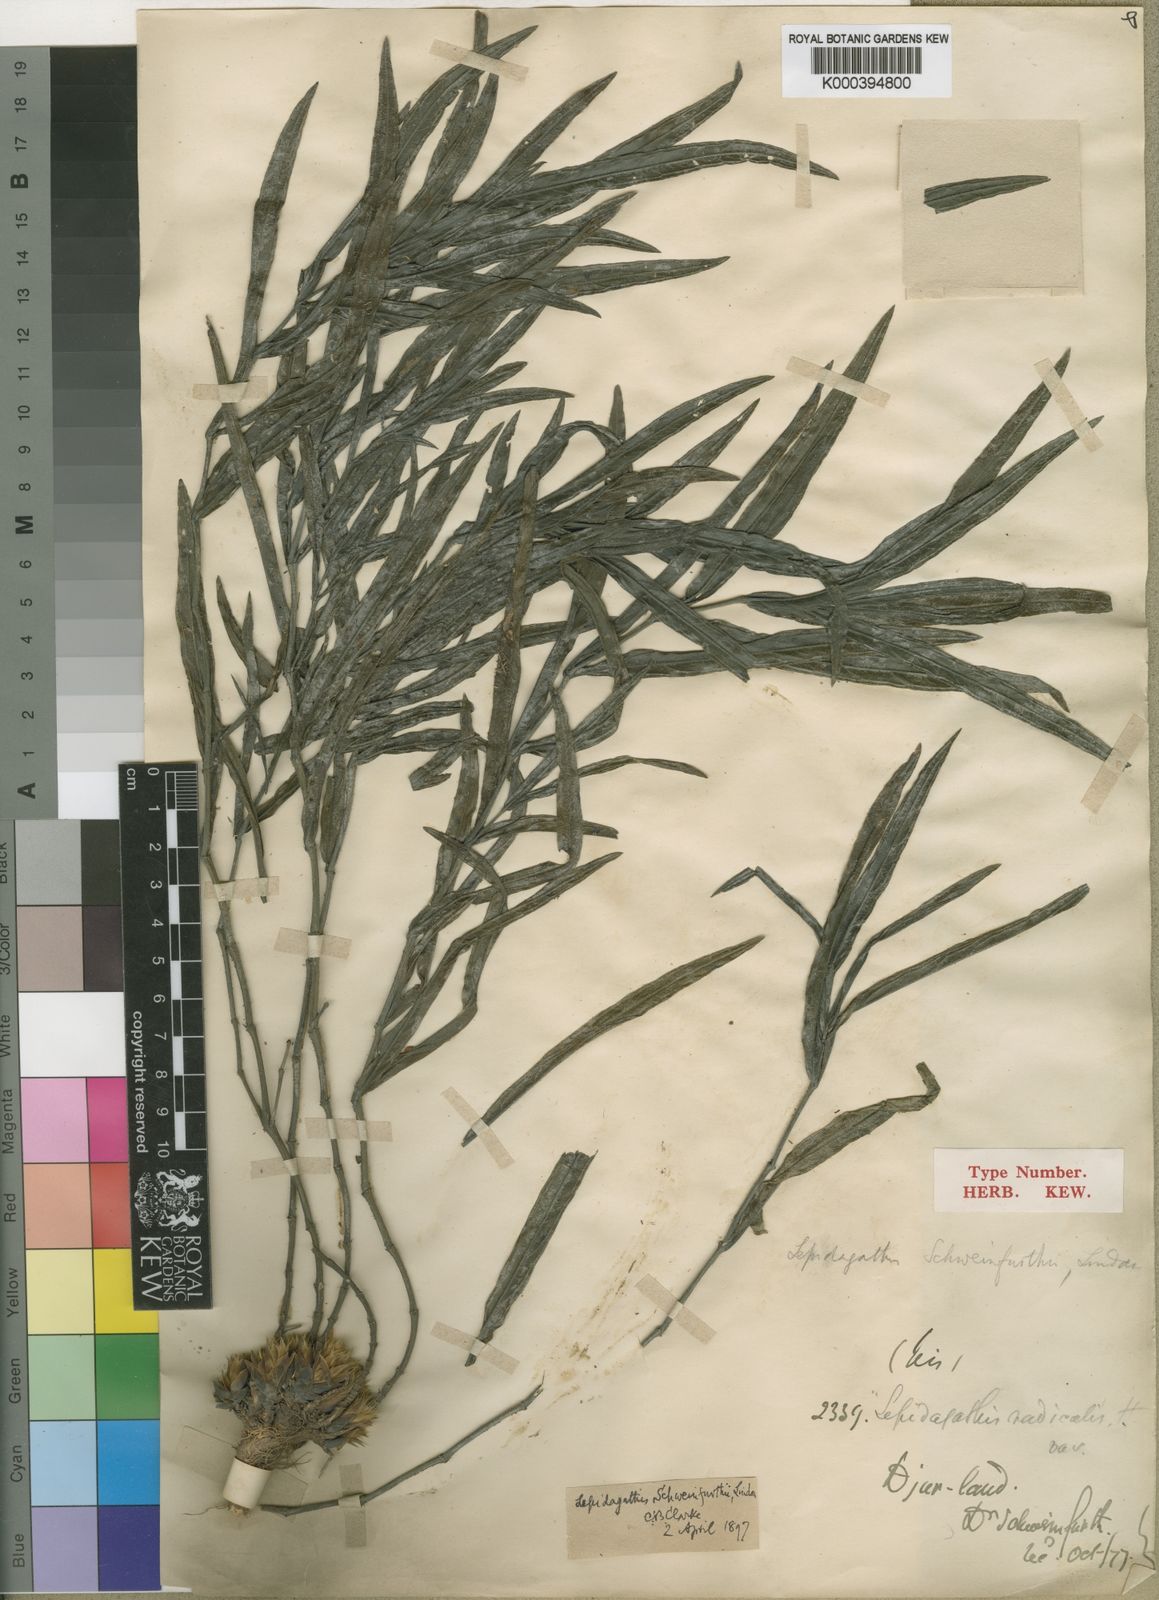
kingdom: Plantae
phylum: Tracheophyta
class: Magnoliopsida
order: Lamiales
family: Acanthaceae
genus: Lepidagathis
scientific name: Lepidagathis hamiltoniana
